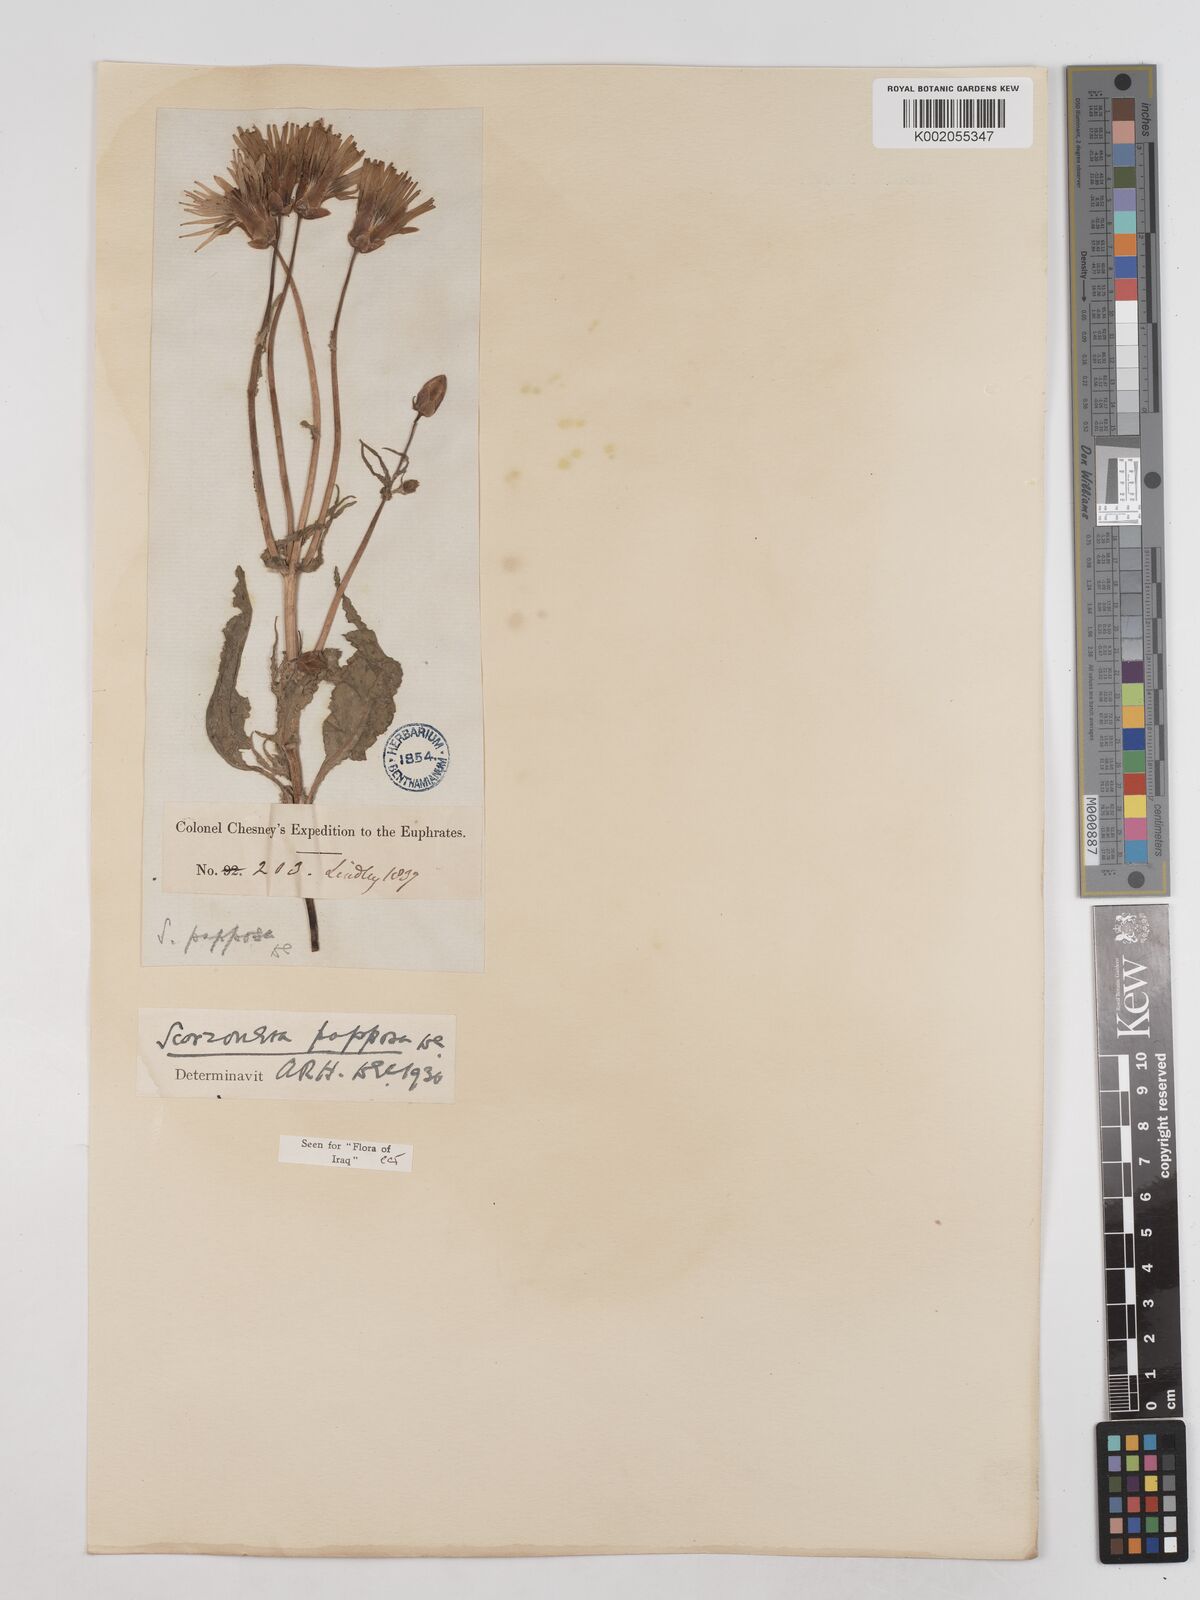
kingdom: Plantae
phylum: Tracheophyta
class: Magnoliopsida
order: Asterales
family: Asteraceae
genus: Pseudopodospermum
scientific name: Pseudopodospermum papposum
